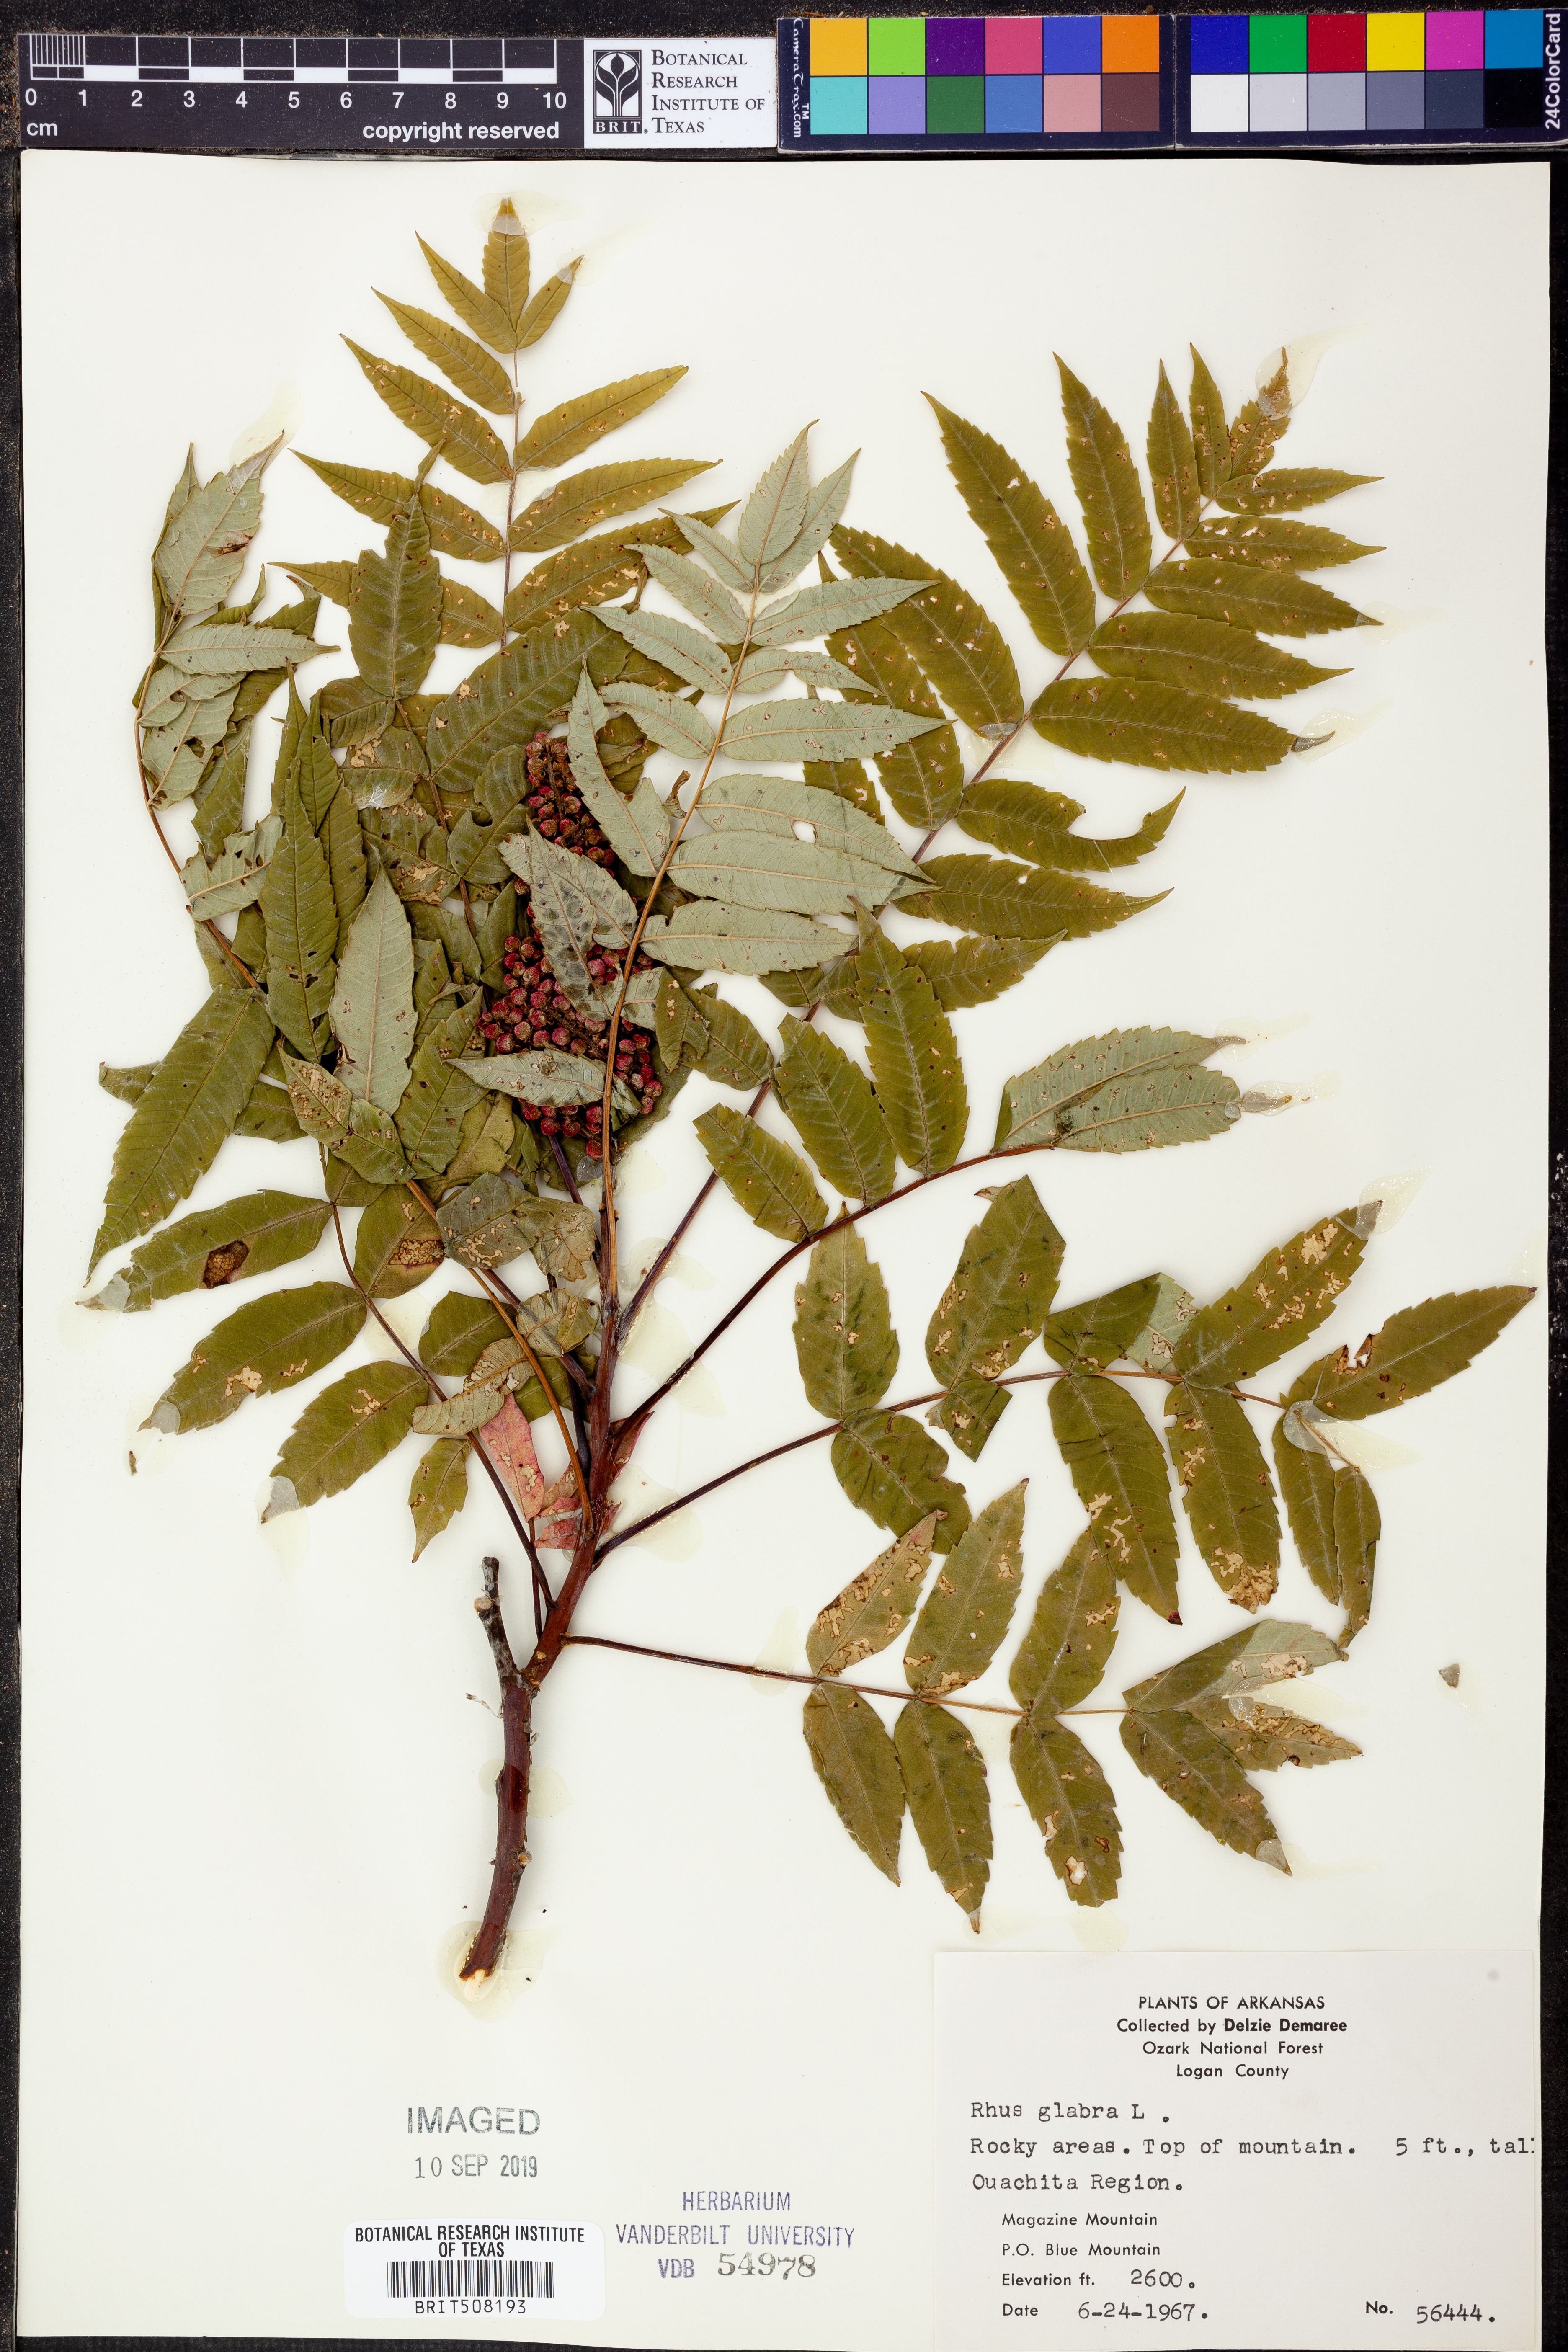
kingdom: Plantae
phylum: Tracheophyta
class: Magnoliopsida
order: Sapindales
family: Anacardiaceae
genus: Rhus
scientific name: Rhus glabra
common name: Scarlet sumac
